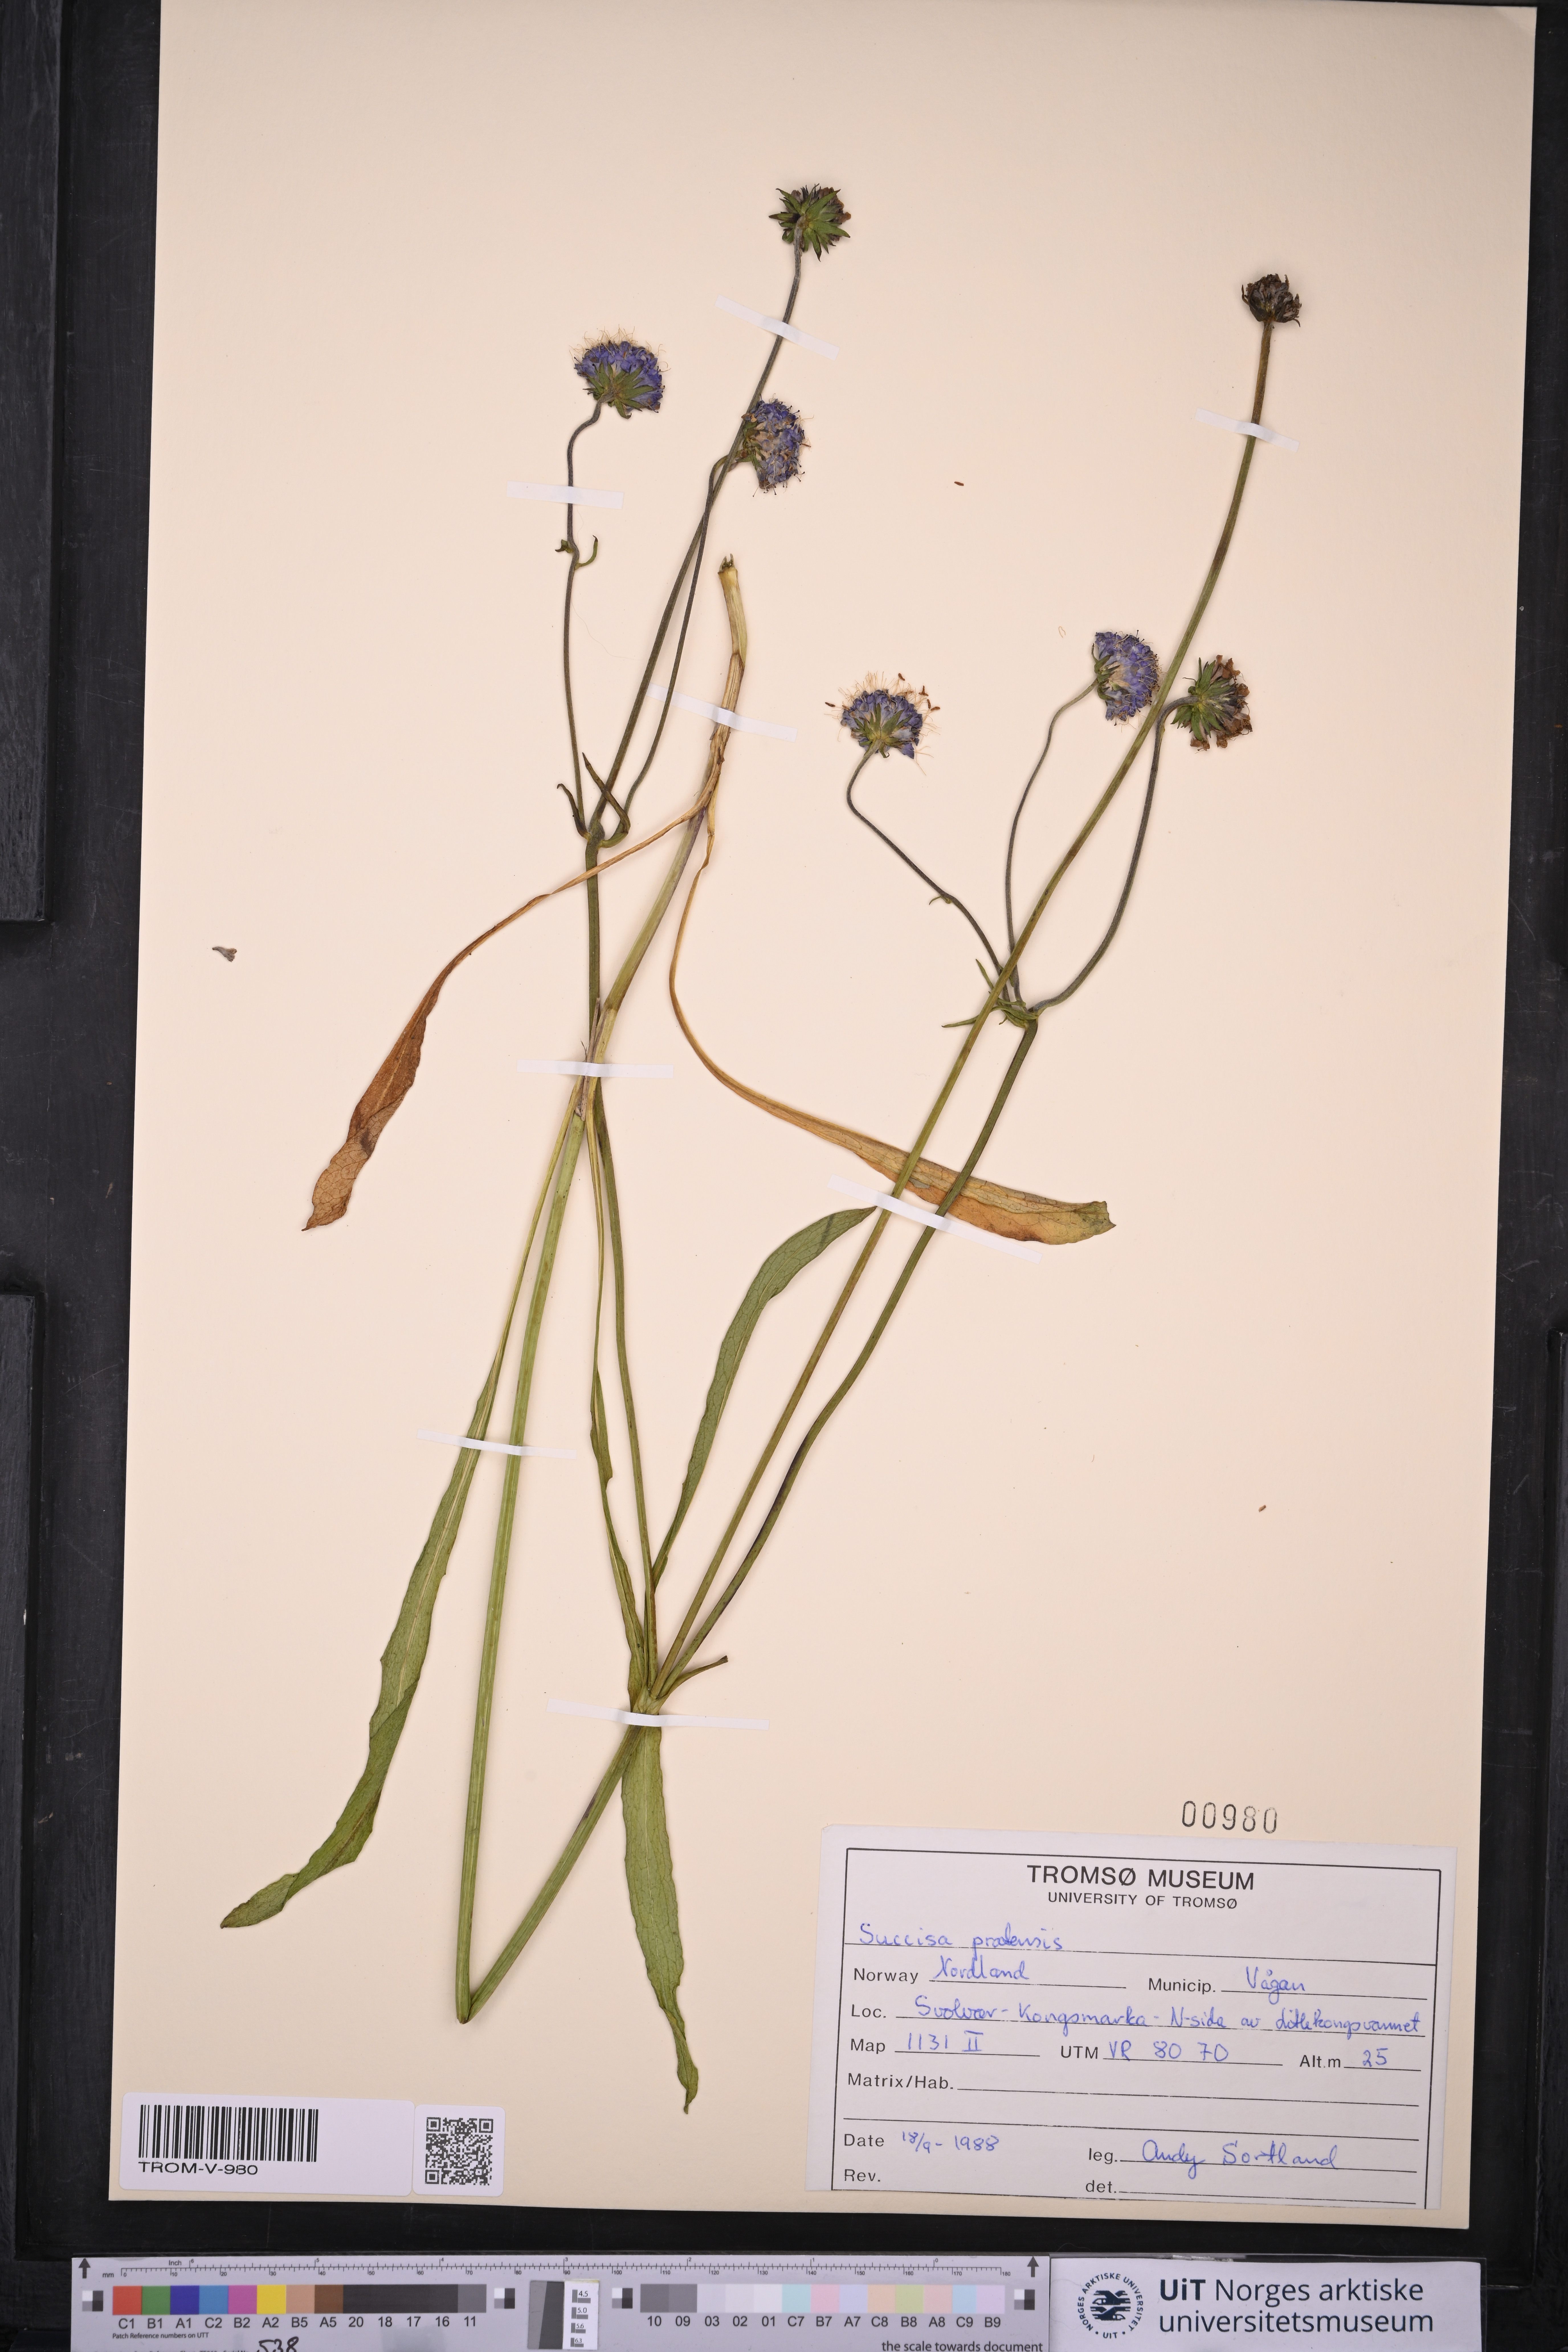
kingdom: Plantae
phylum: Tracheophyta
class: Magnoliopsida
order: Dipsacales
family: Caprifoliaceae
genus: Succisa
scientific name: Succisa pratensis
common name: Devil's-bit
